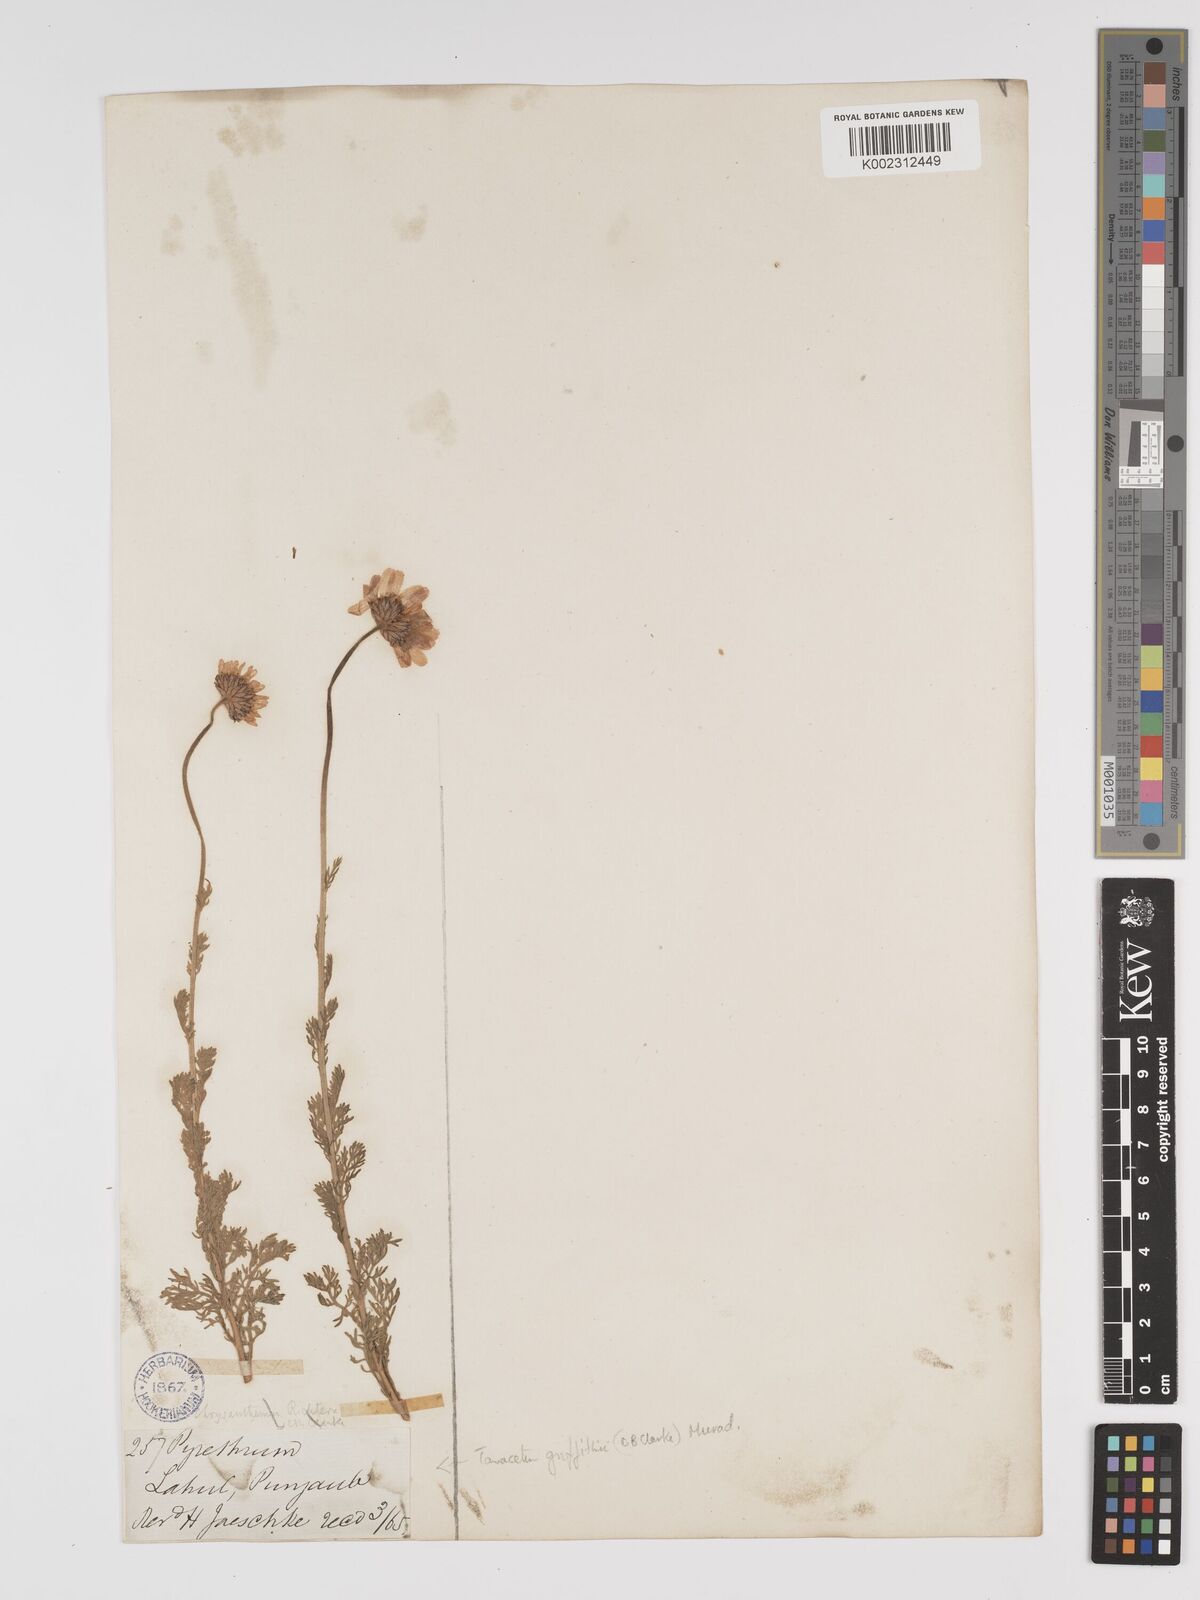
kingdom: Plantae
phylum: Tracheophyta
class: Magnoliopsida
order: Asterales
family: Asteraceae
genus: Tanacetum
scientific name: Tanacetum stoliczkae
